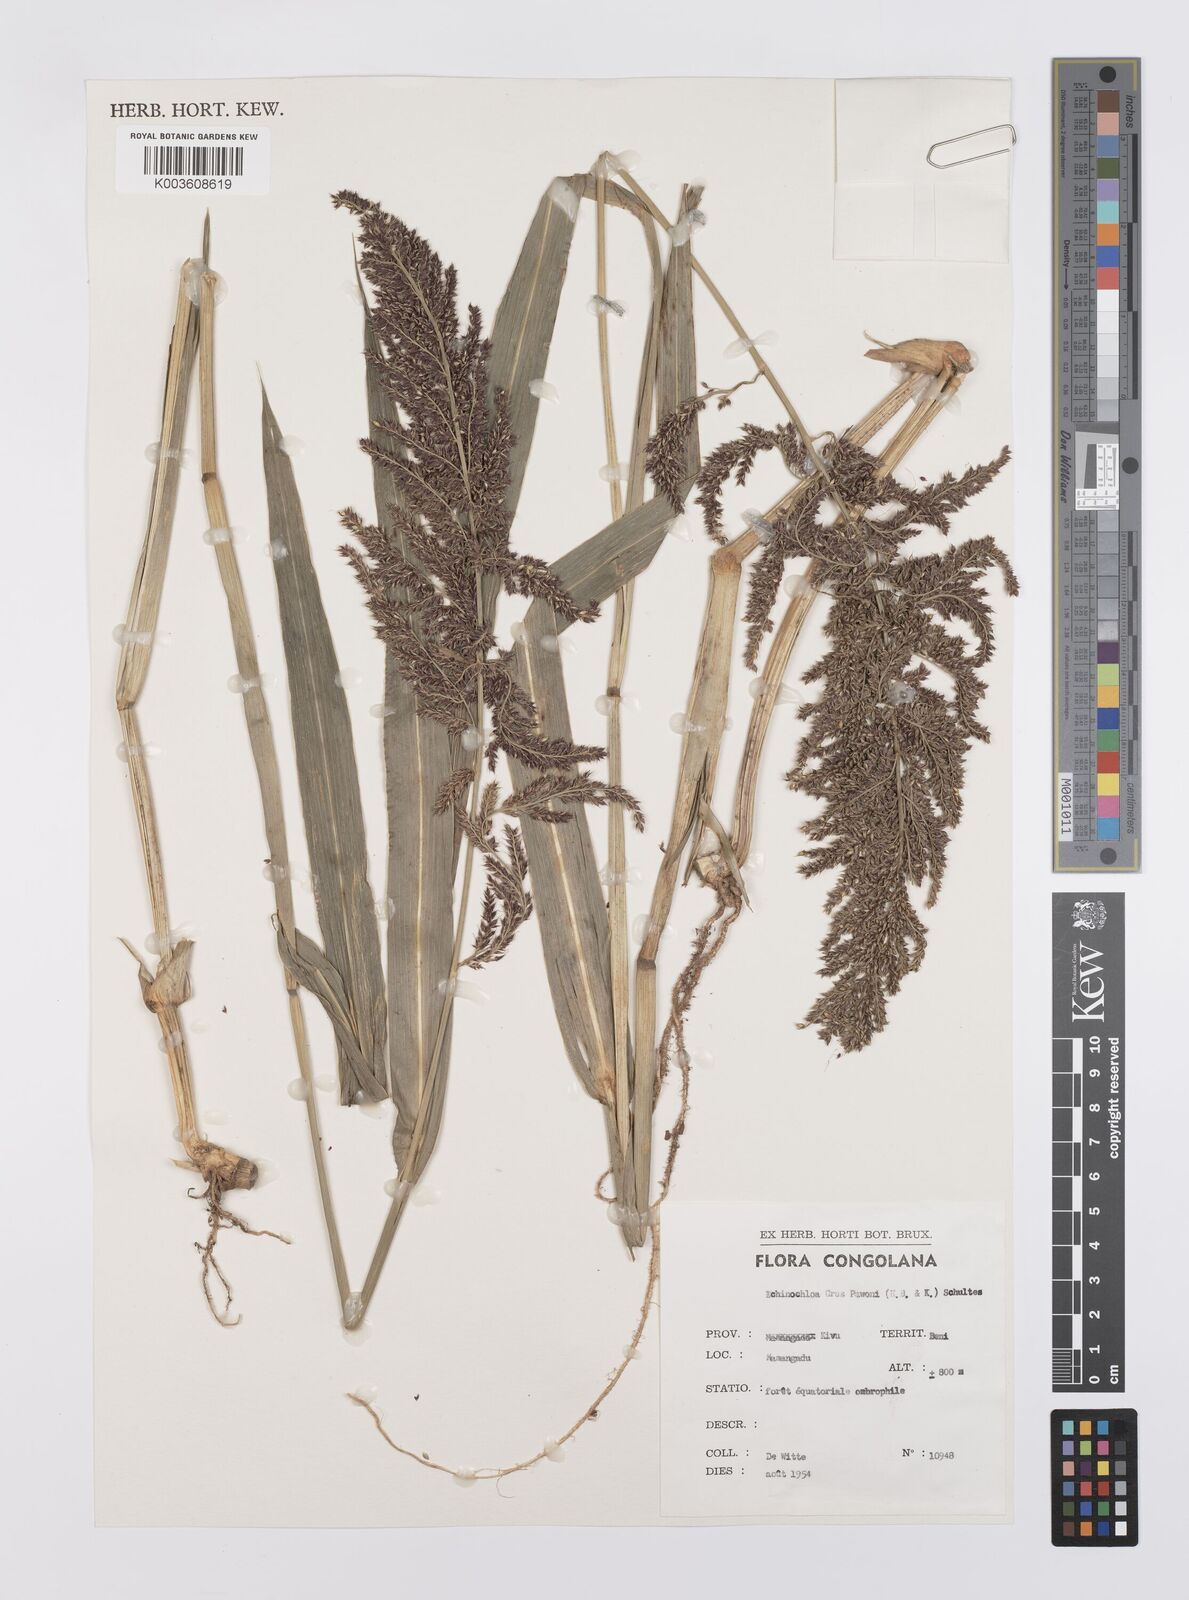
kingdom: Plantae
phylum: Tracheophyta
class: Liliopsida
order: Poales
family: Poaceae
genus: Echinochloa
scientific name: Echinochloa crus-pavonis
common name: Gulf cockspur grass
